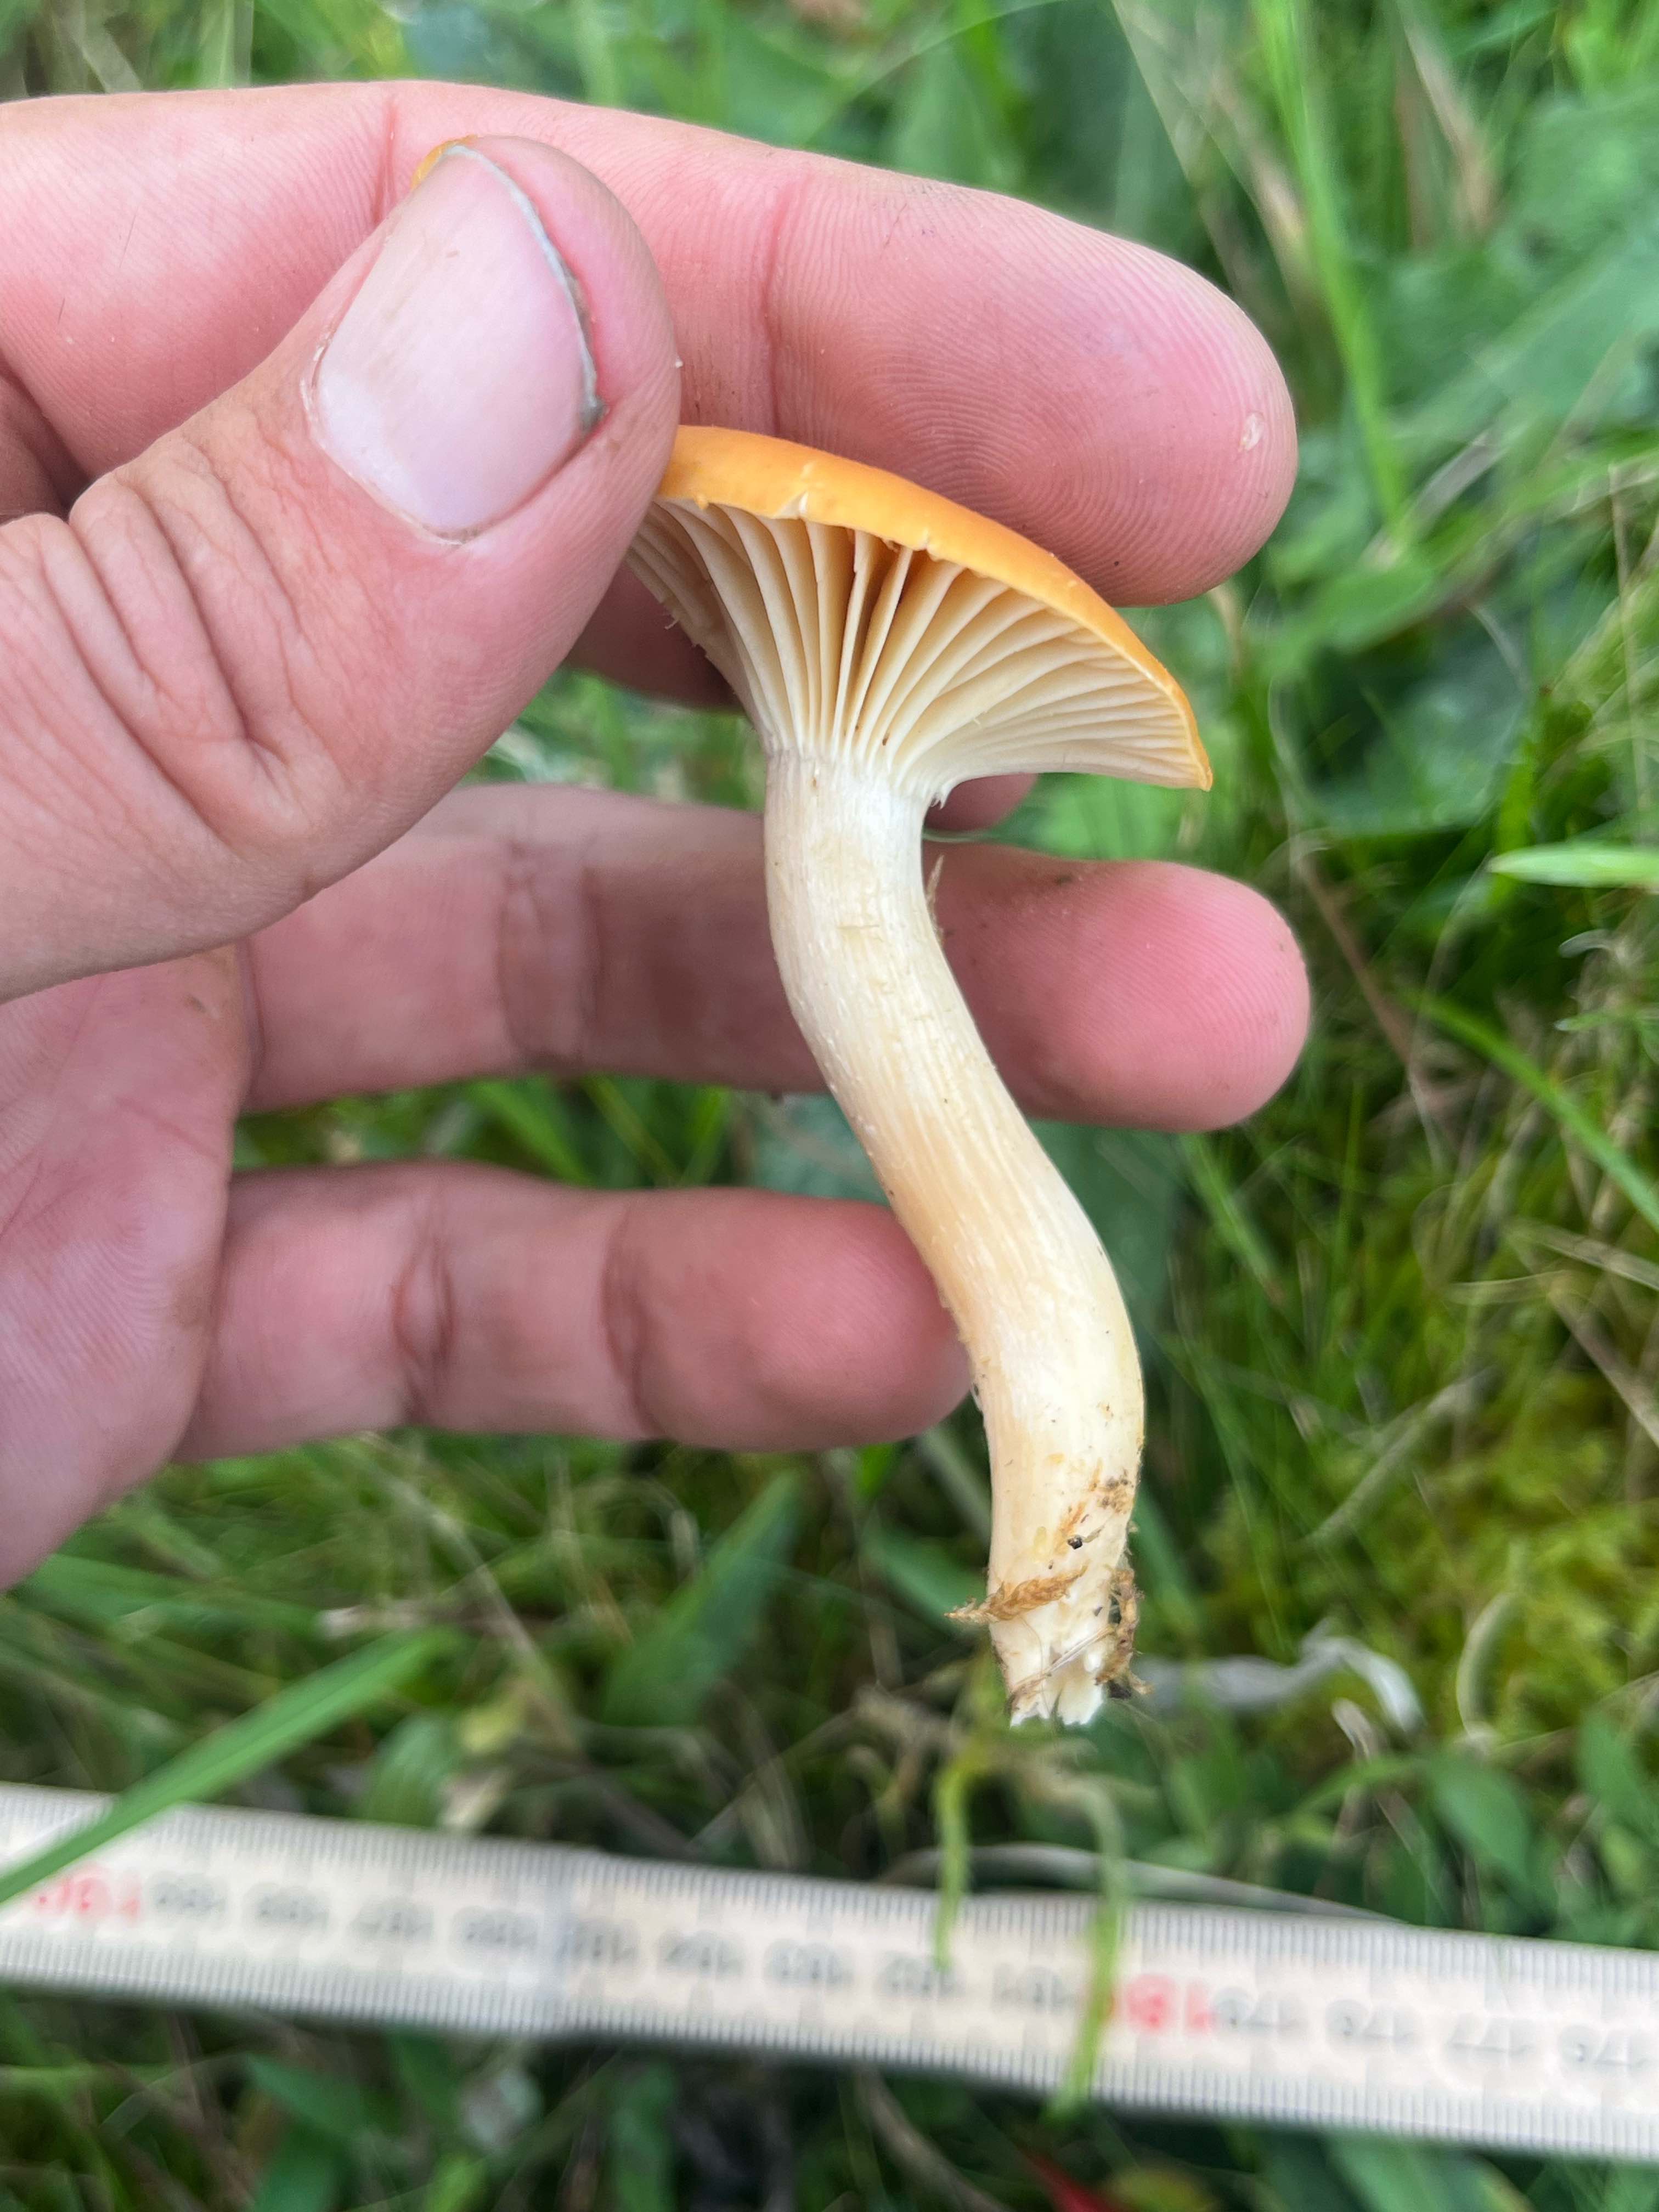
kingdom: Fungi
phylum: Basidiomycota
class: Agaricomycetes
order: Agaricales
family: Hygrophoraceae
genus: Cuphophyllus
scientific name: Cuphophyllus pratensis
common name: eng-vokshat
